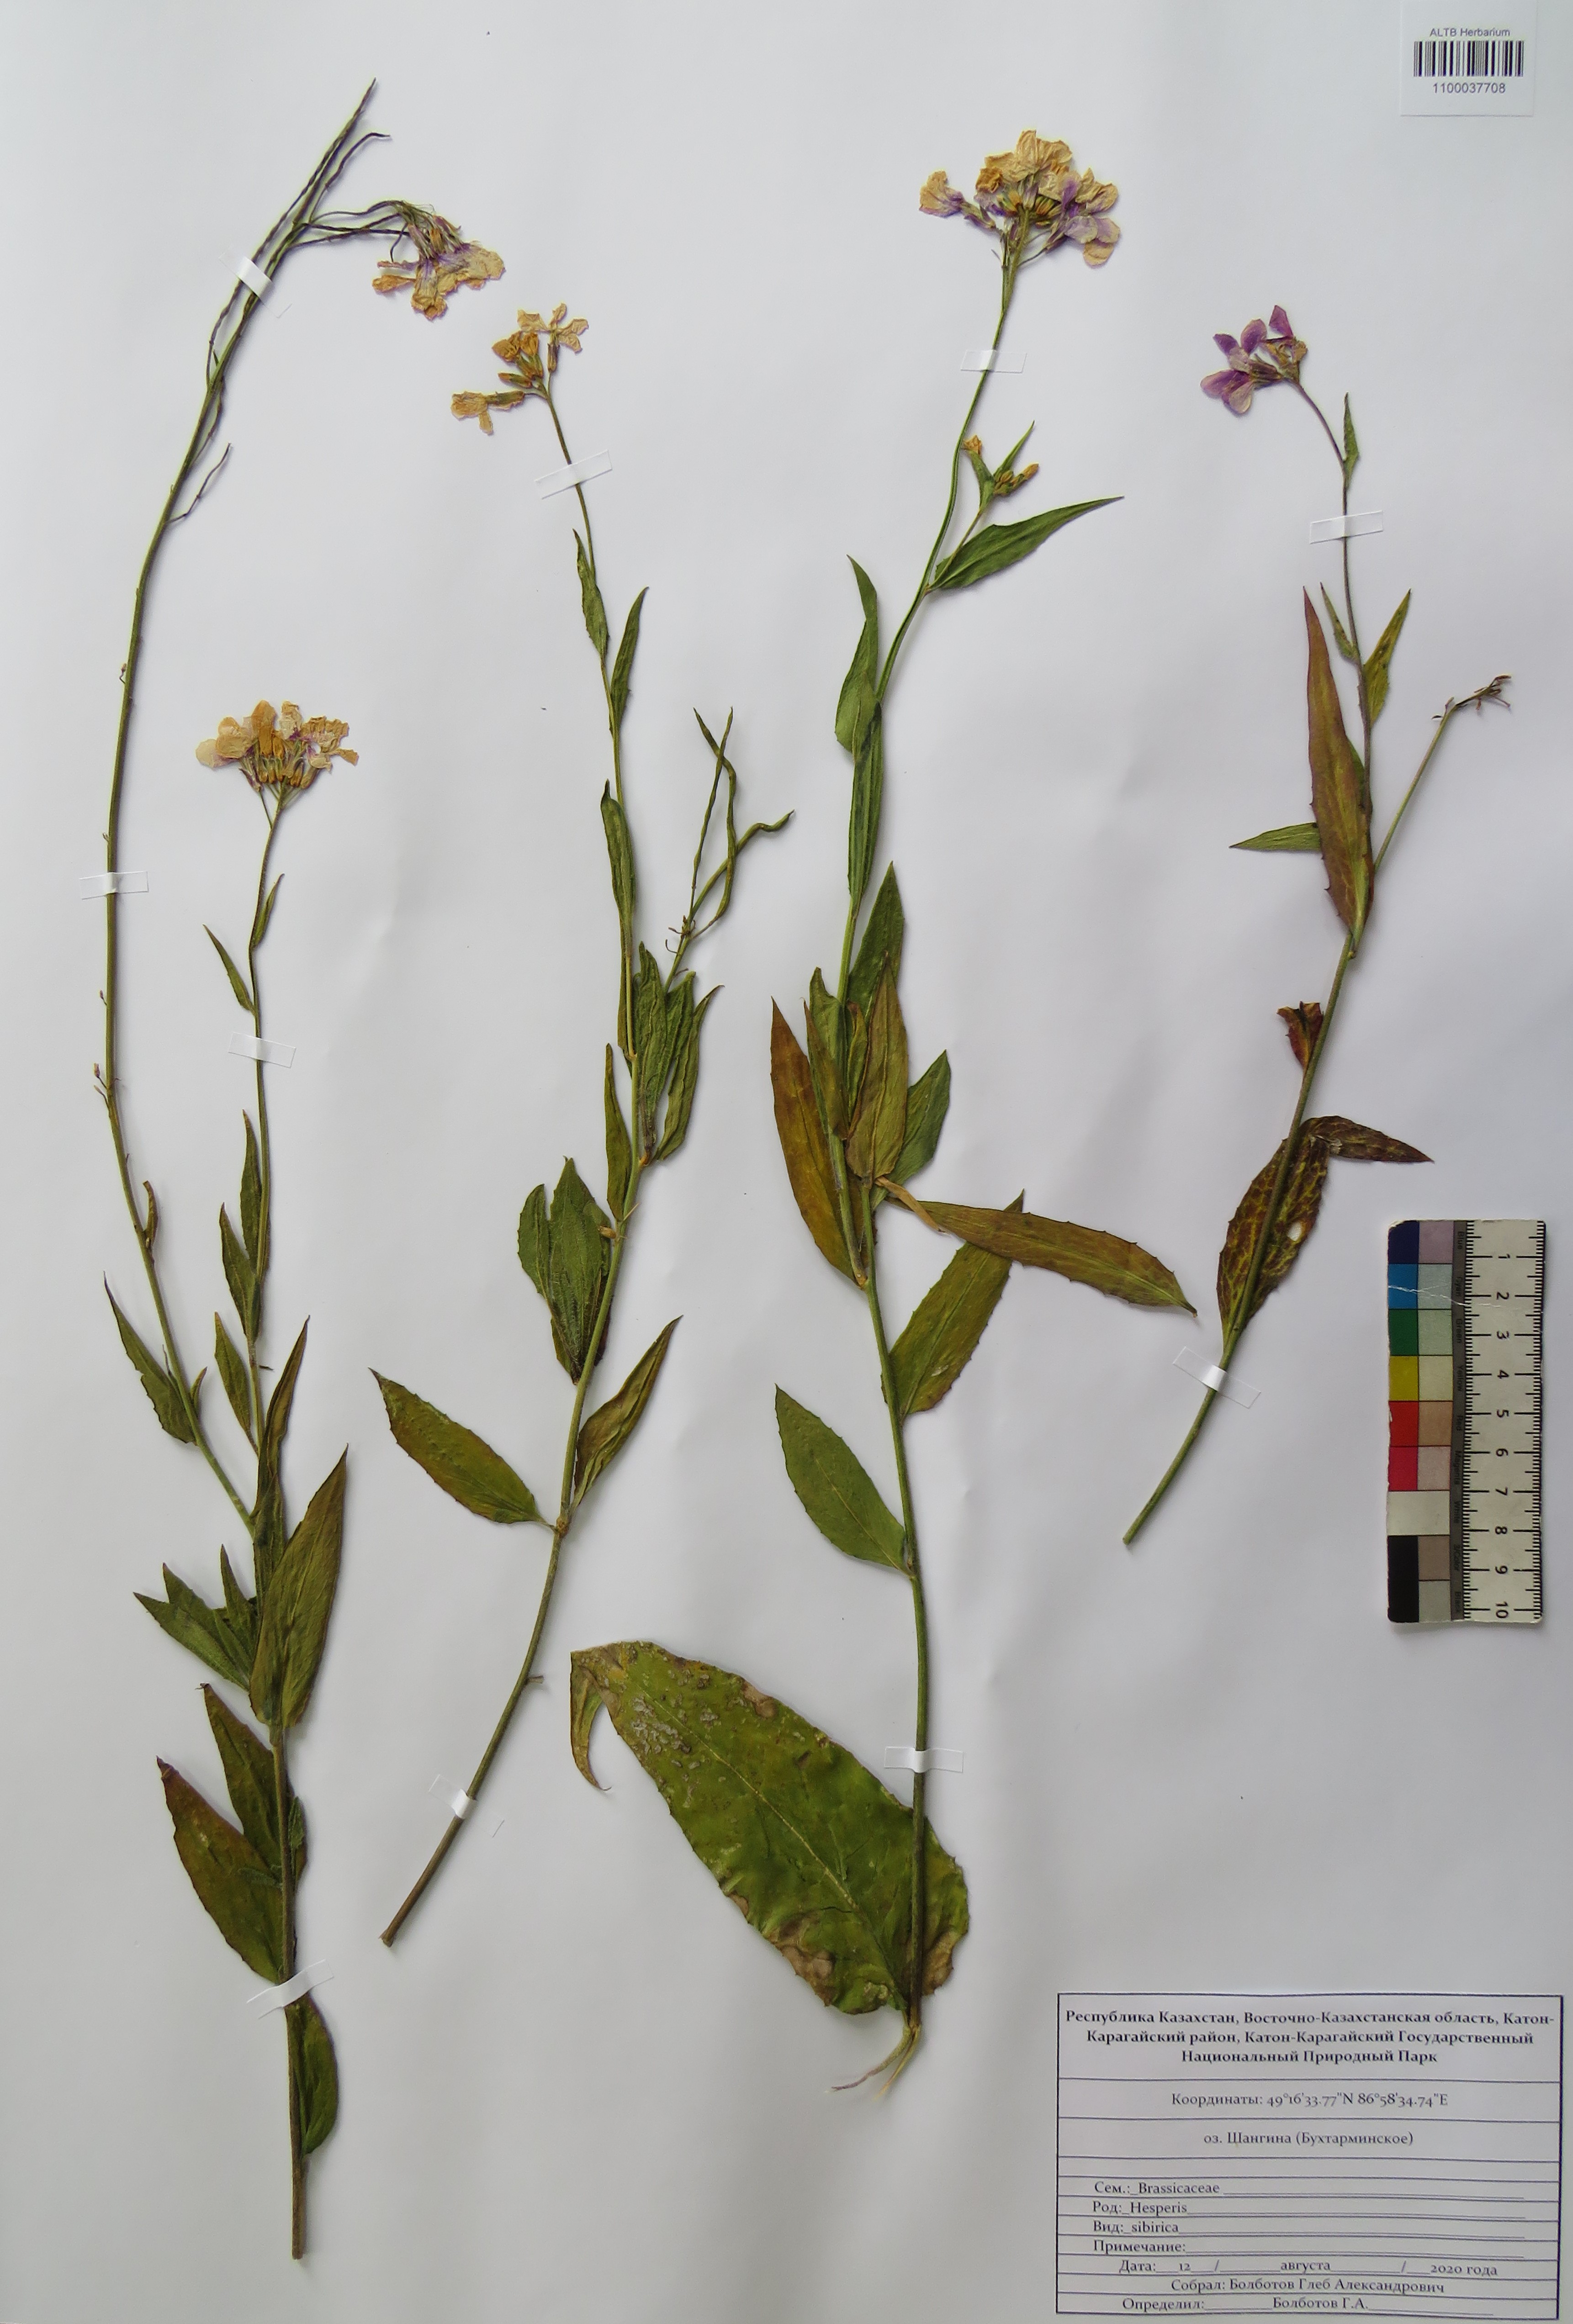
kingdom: Plantae
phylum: Tracheophyta
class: Magnoliopsida
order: Brassicales
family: Brassicaceae
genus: Hesperis
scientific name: Hesperis sibirica
